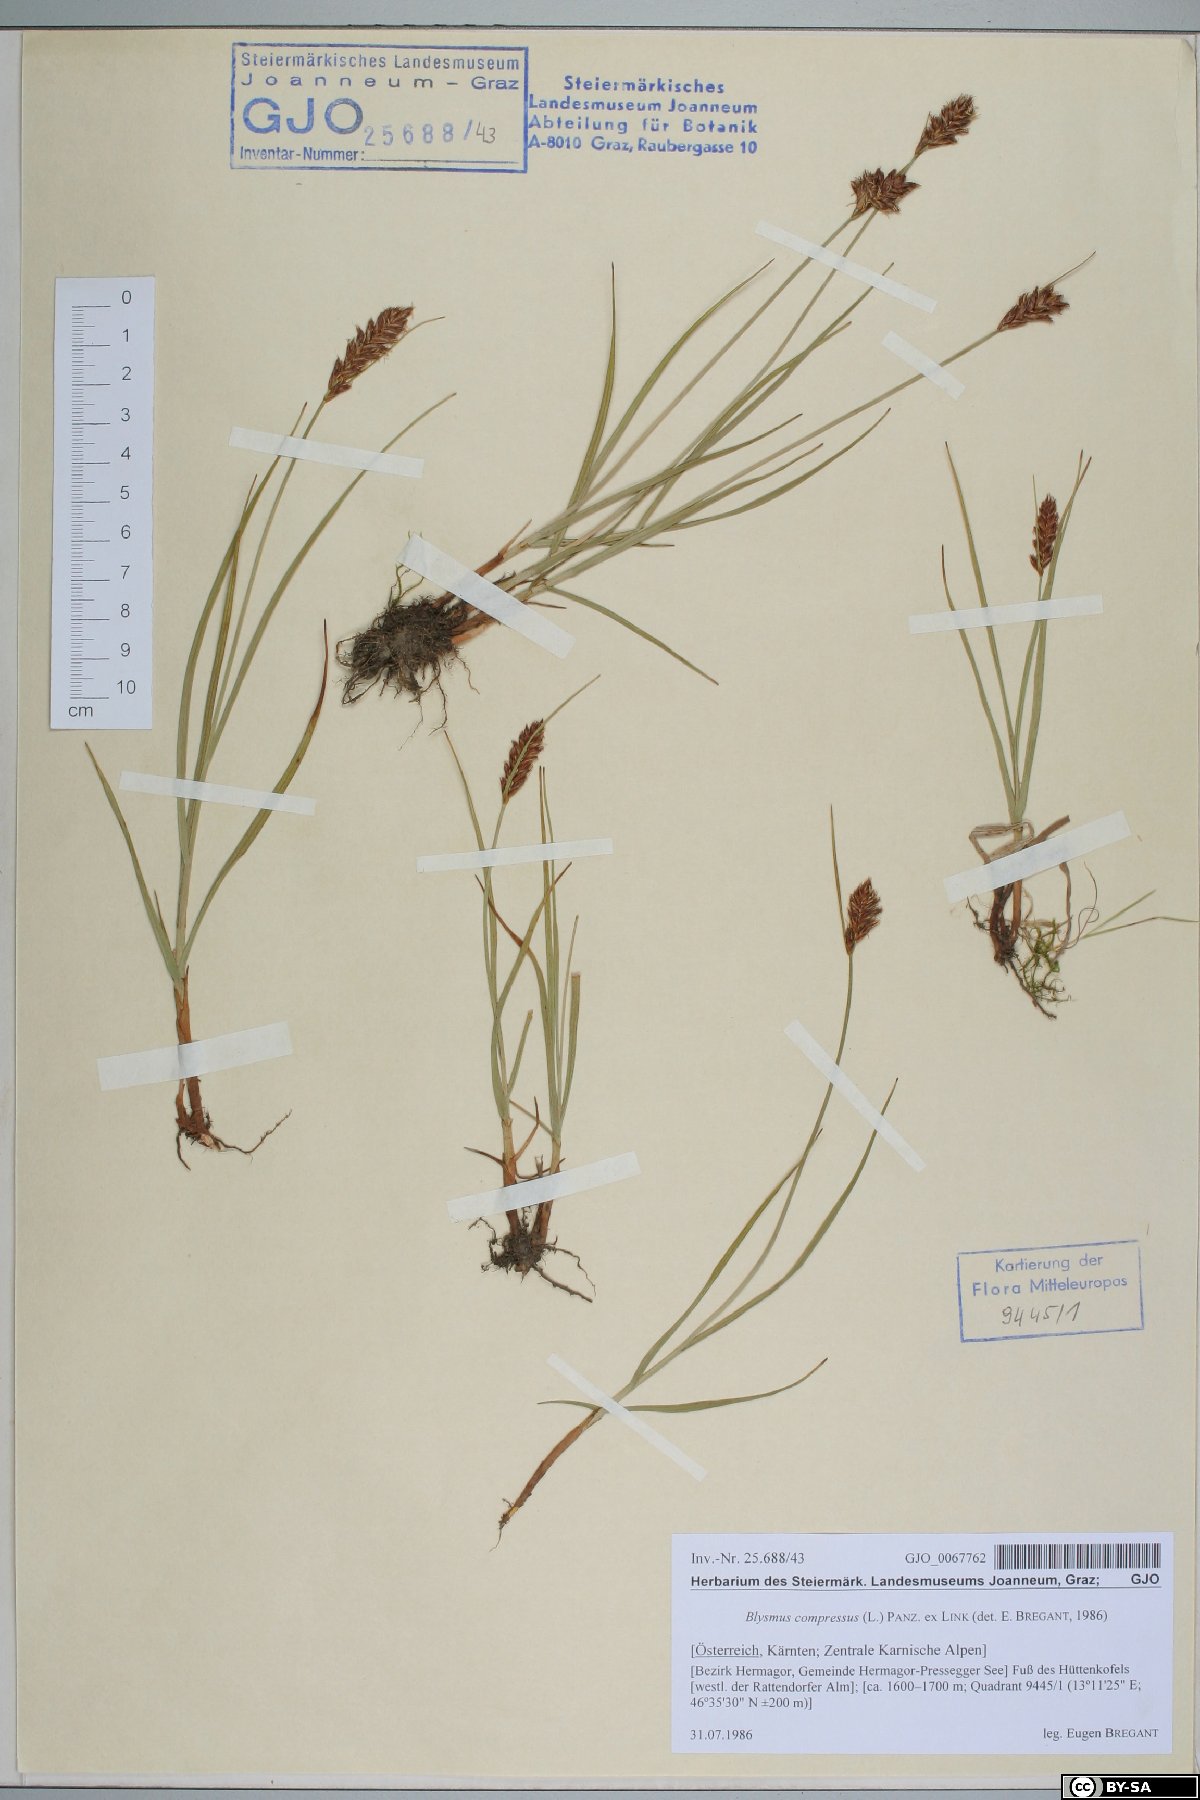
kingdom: Plantae
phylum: Tracheophyta
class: Liliopsida
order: Poales
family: Cyperaceae
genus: Blysmus
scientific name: Blysmus compressus
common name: Flat-sedge
